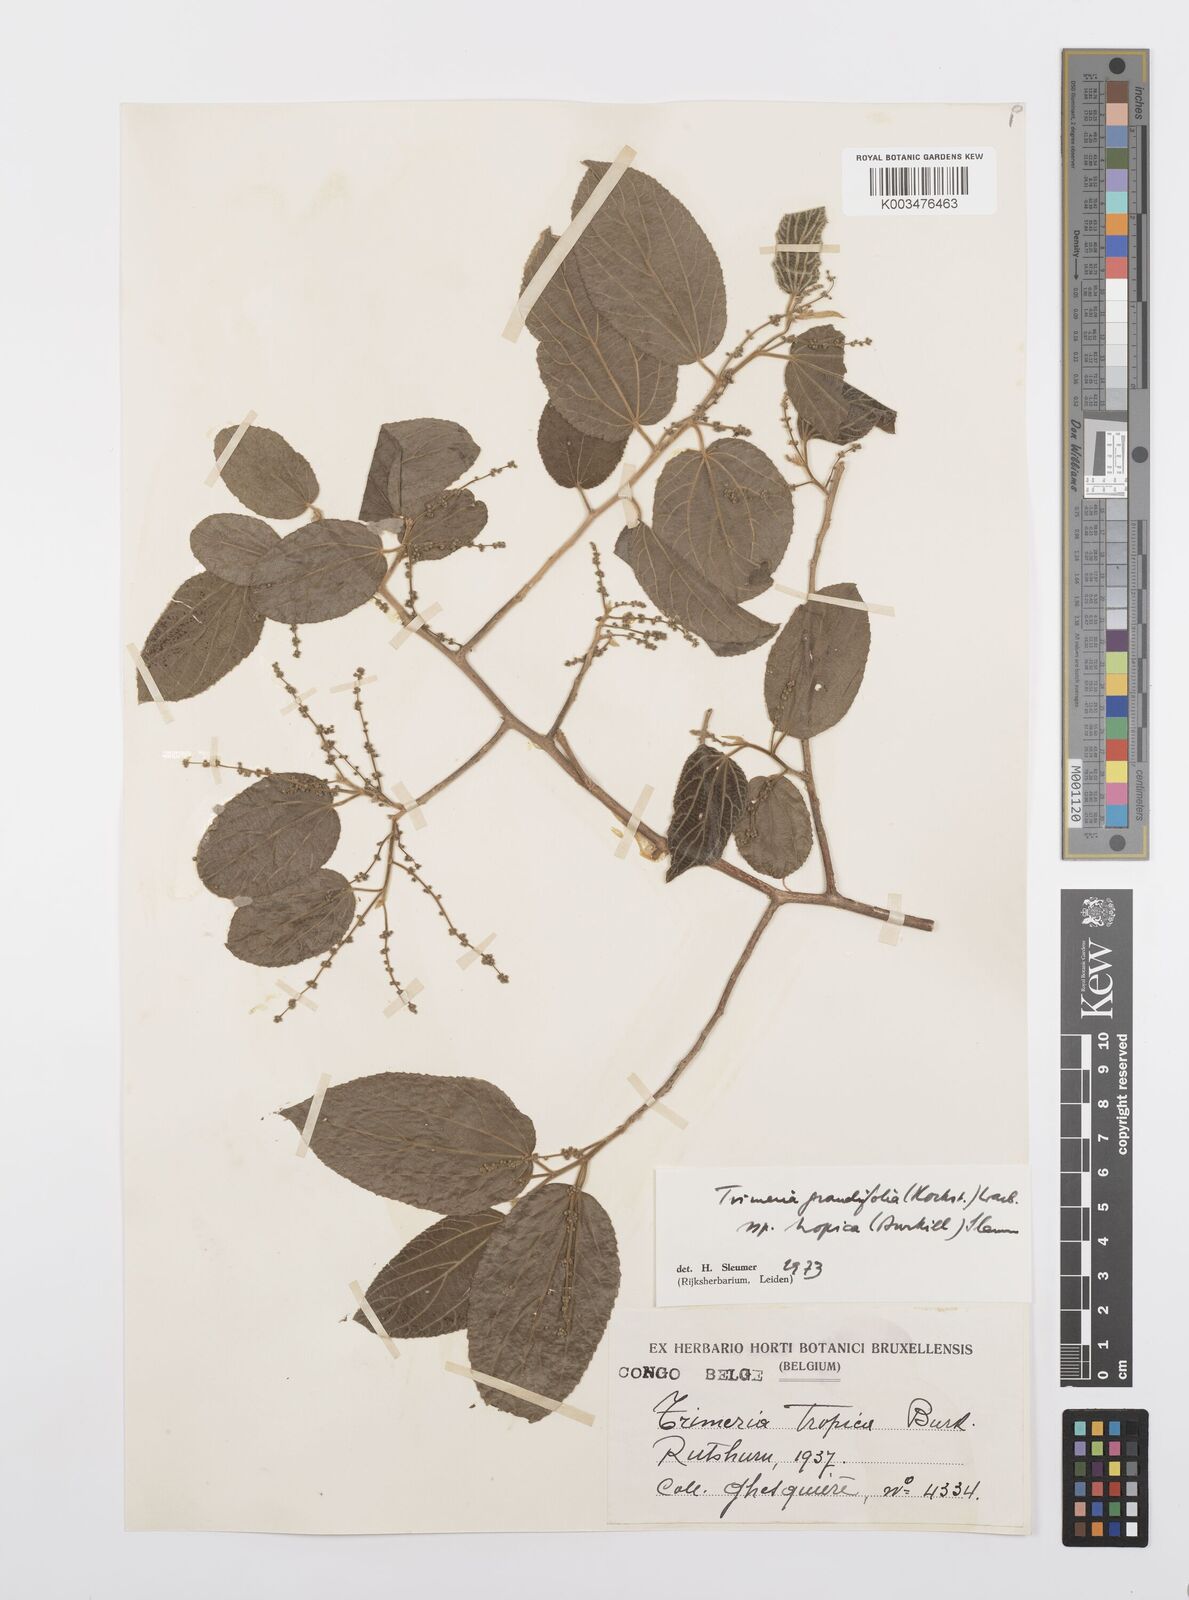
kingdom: Plantae
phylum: Tracheophyta
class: Magnoliopsida
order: Malpighiales
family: Salicaceae
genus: Trimeria
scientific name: Trimeria grandifolia
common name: Wild mulberry
